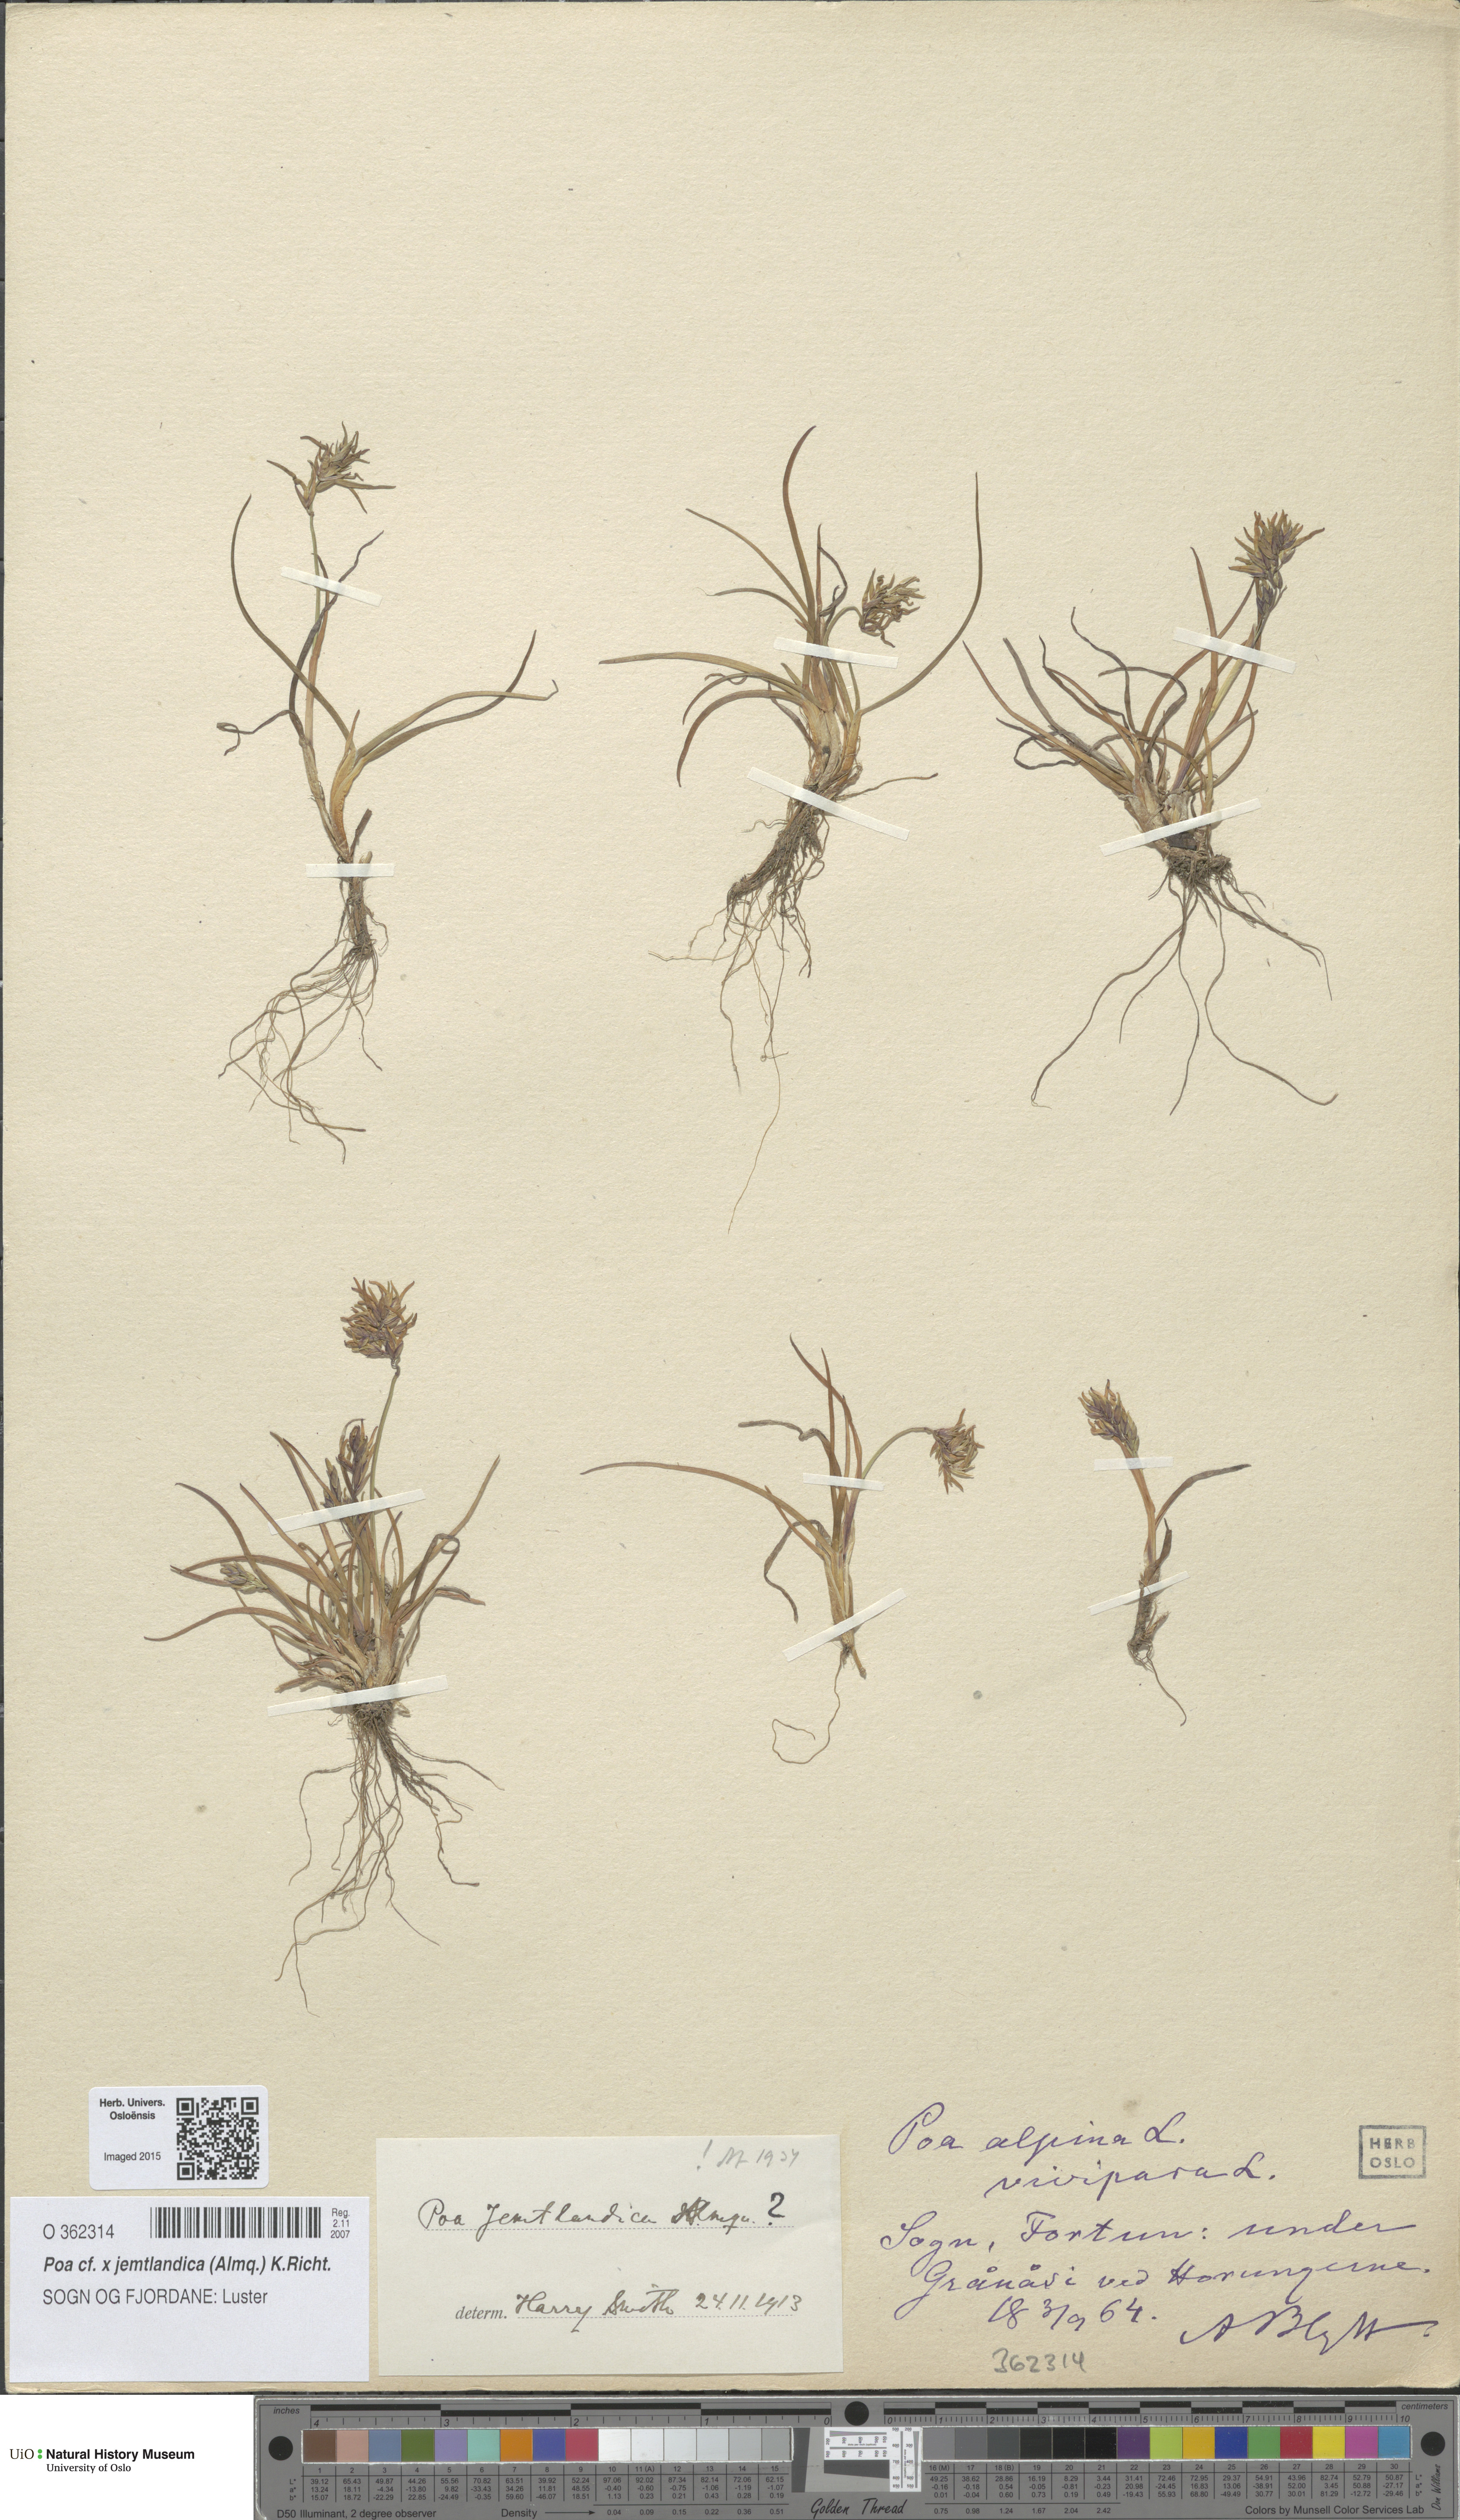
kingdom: Plantae
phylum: Tracheophyta
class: Liliopsida
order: Poales
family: Poaceae
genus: Poa
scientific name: Poa jemtlandica
